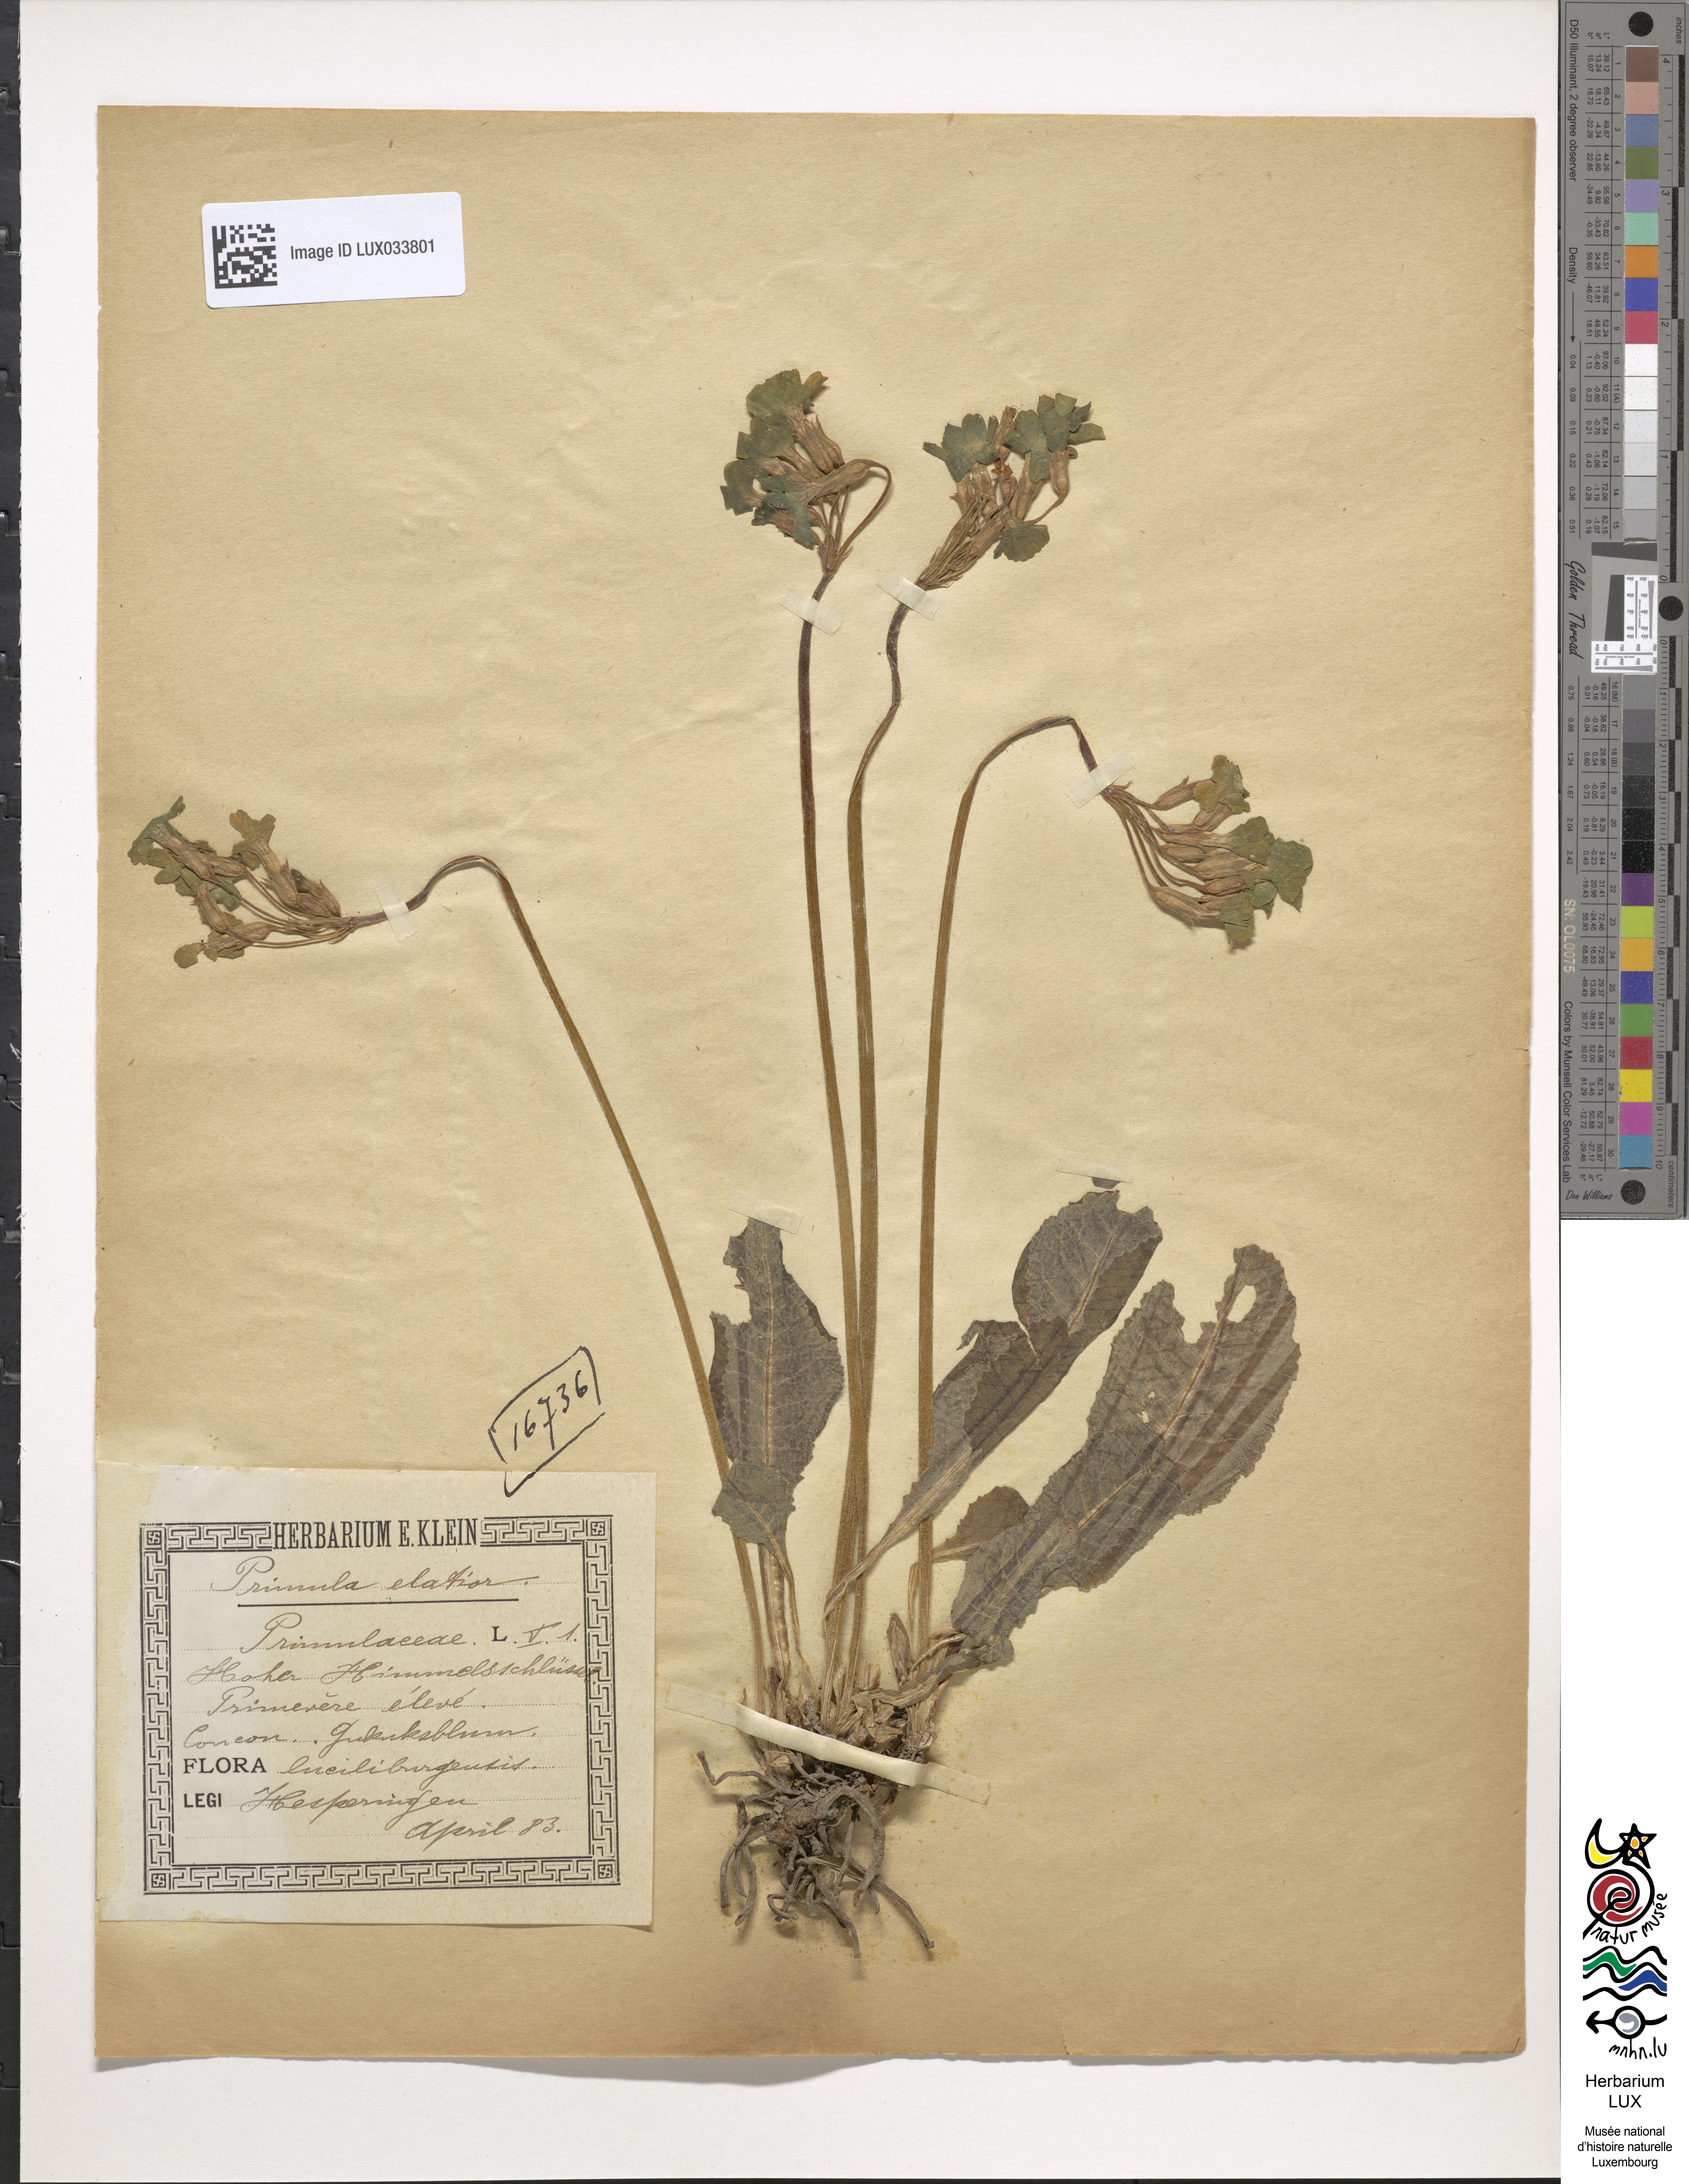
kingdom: Plantae
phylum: Tracheophyta
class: Magnoliopsida
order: Ericales
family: Primulaceae
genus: Primula
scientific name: Primula elatior
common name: Oxlip
